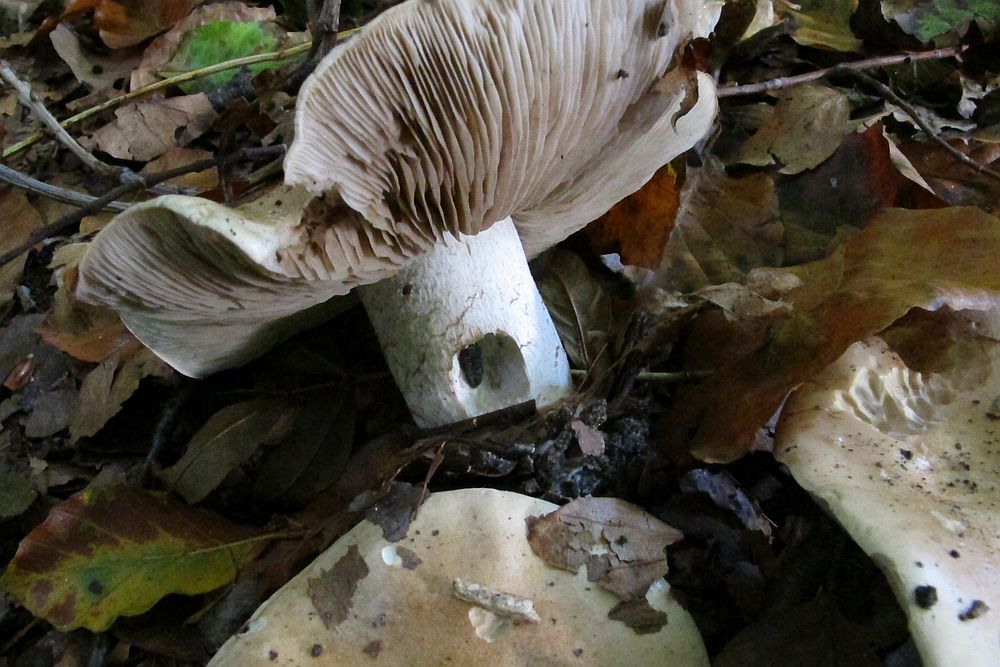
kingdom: Fungi
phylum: Basidiomycota
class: Agaricomycetes
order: Agaricales
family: Hymenogastraceae
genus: Hebeloma
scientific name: Hebeloma sinapizans
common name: ræddike-tåreblad
